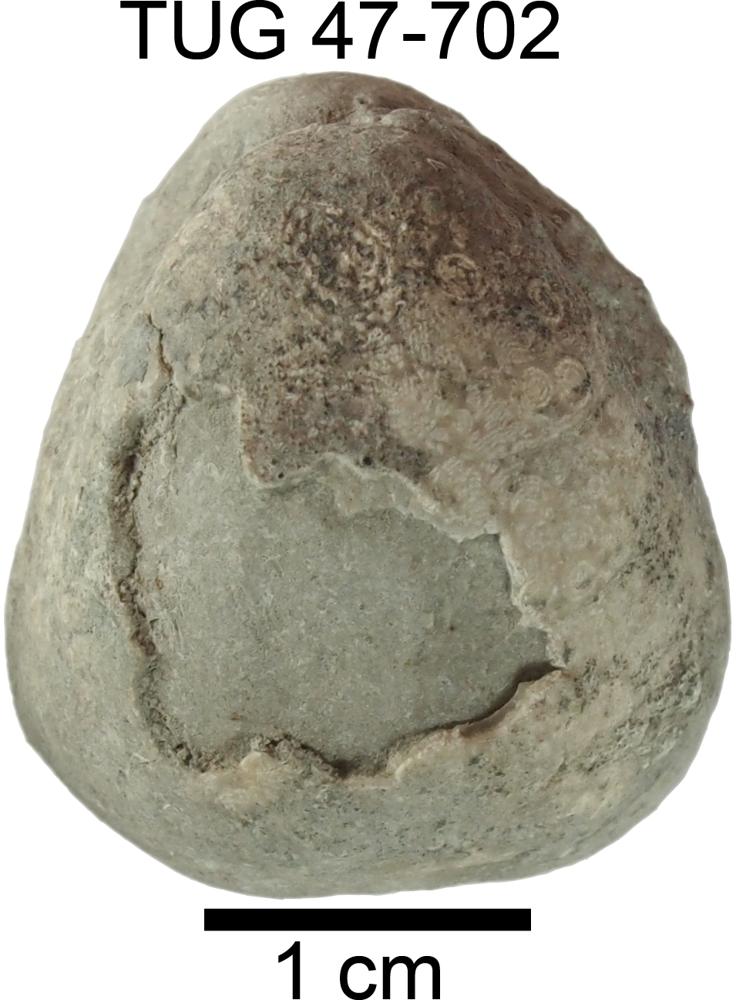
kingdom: Animalia
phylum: Brachiopoda
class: Rhynchonellata
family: Porambonitidae
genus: Porambonites
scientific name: Porambonites baueri
